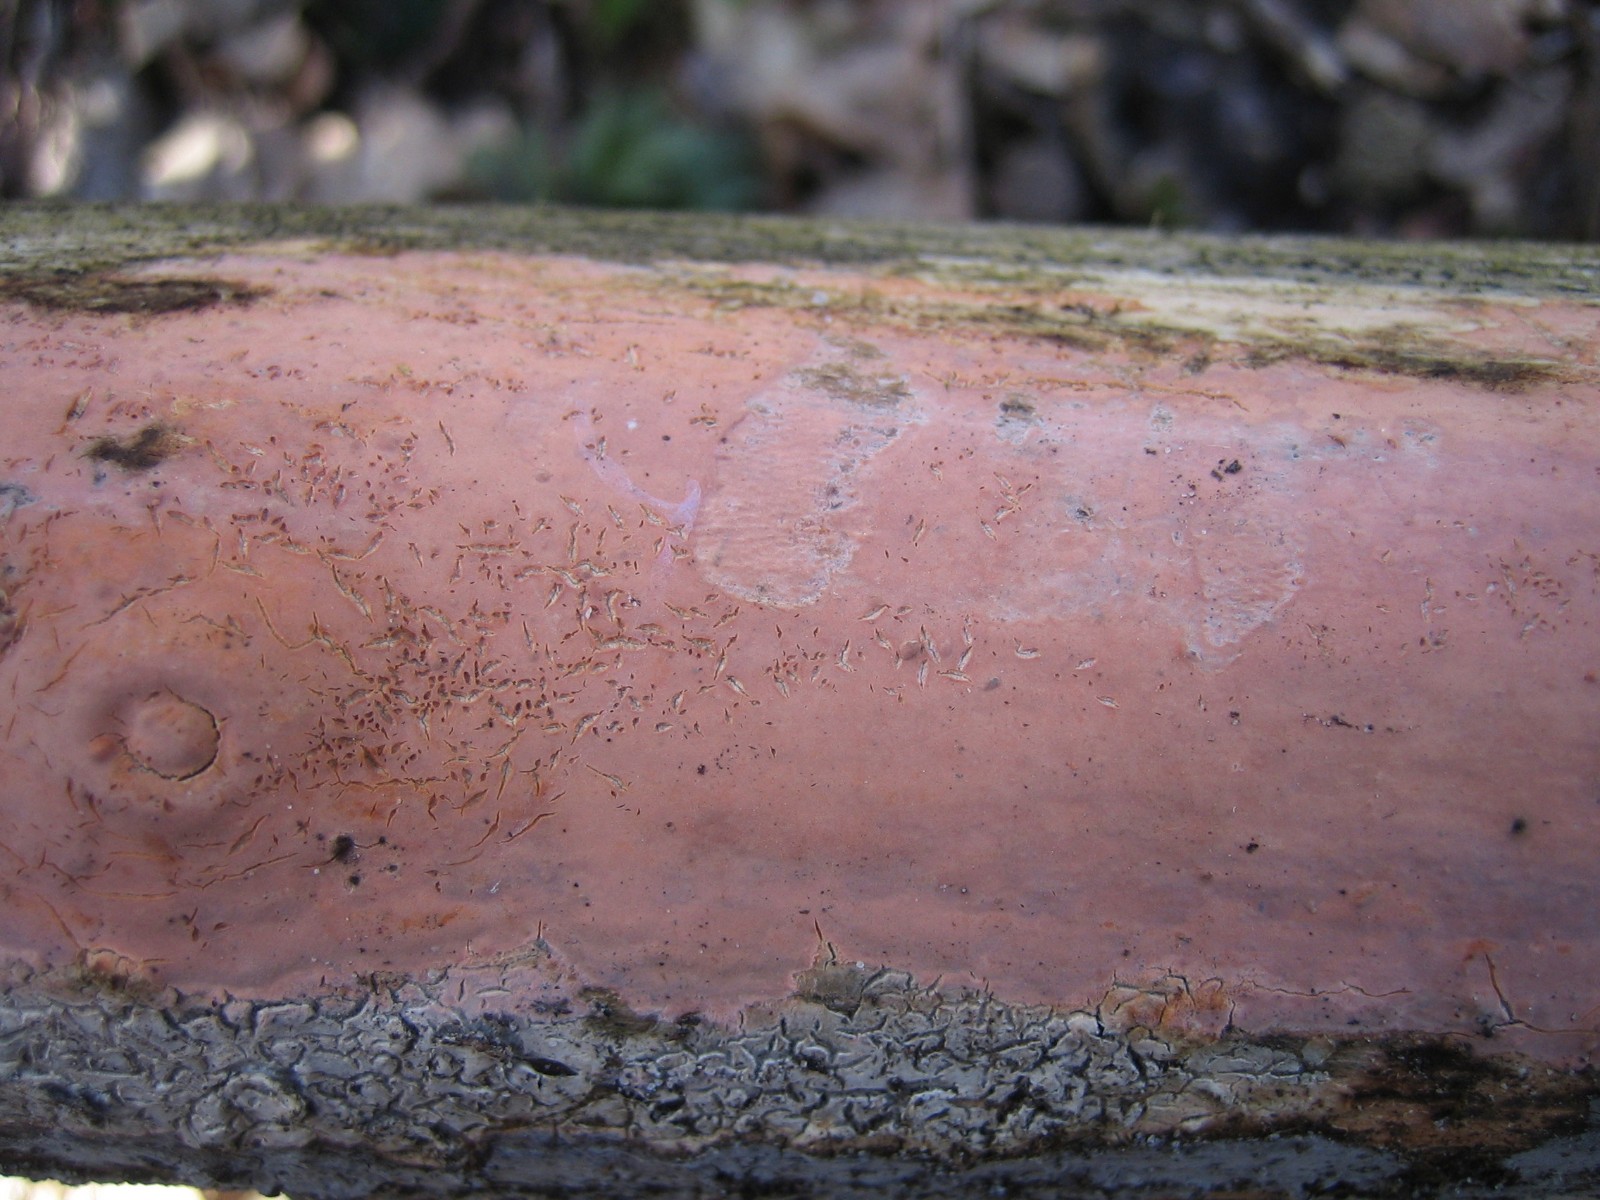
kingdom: Fungi
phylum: Basidiomycota
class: Agaricomycetes
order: Russulales
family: Peniophoraceae
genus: Peniophora
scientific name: Peniophora incarnata
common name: laksefarvet voksskind
